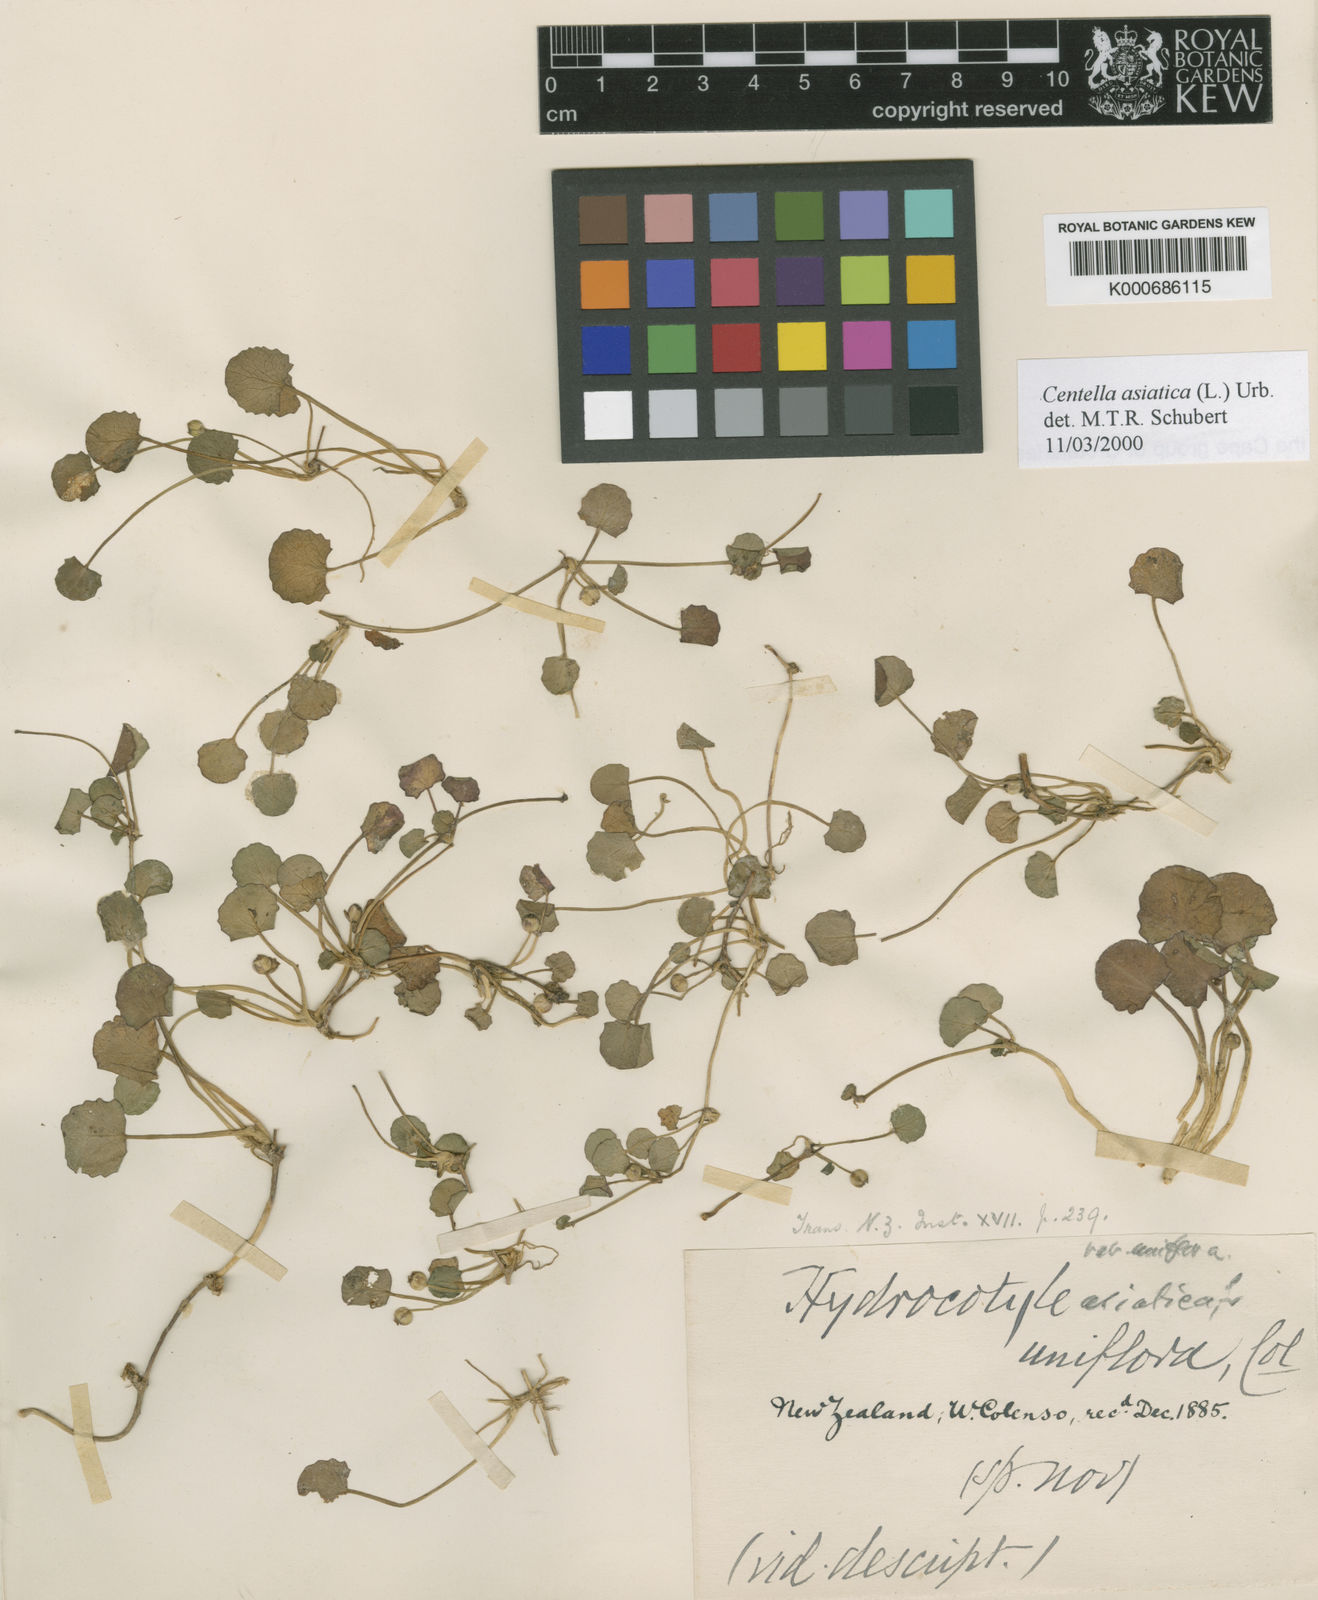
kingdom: Plantae
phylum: Tracheophyta
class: Magnoliopsida
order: Apiales
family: Apiaceae
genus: Centella
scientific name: Centella asiatica
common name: Spadeleaf
